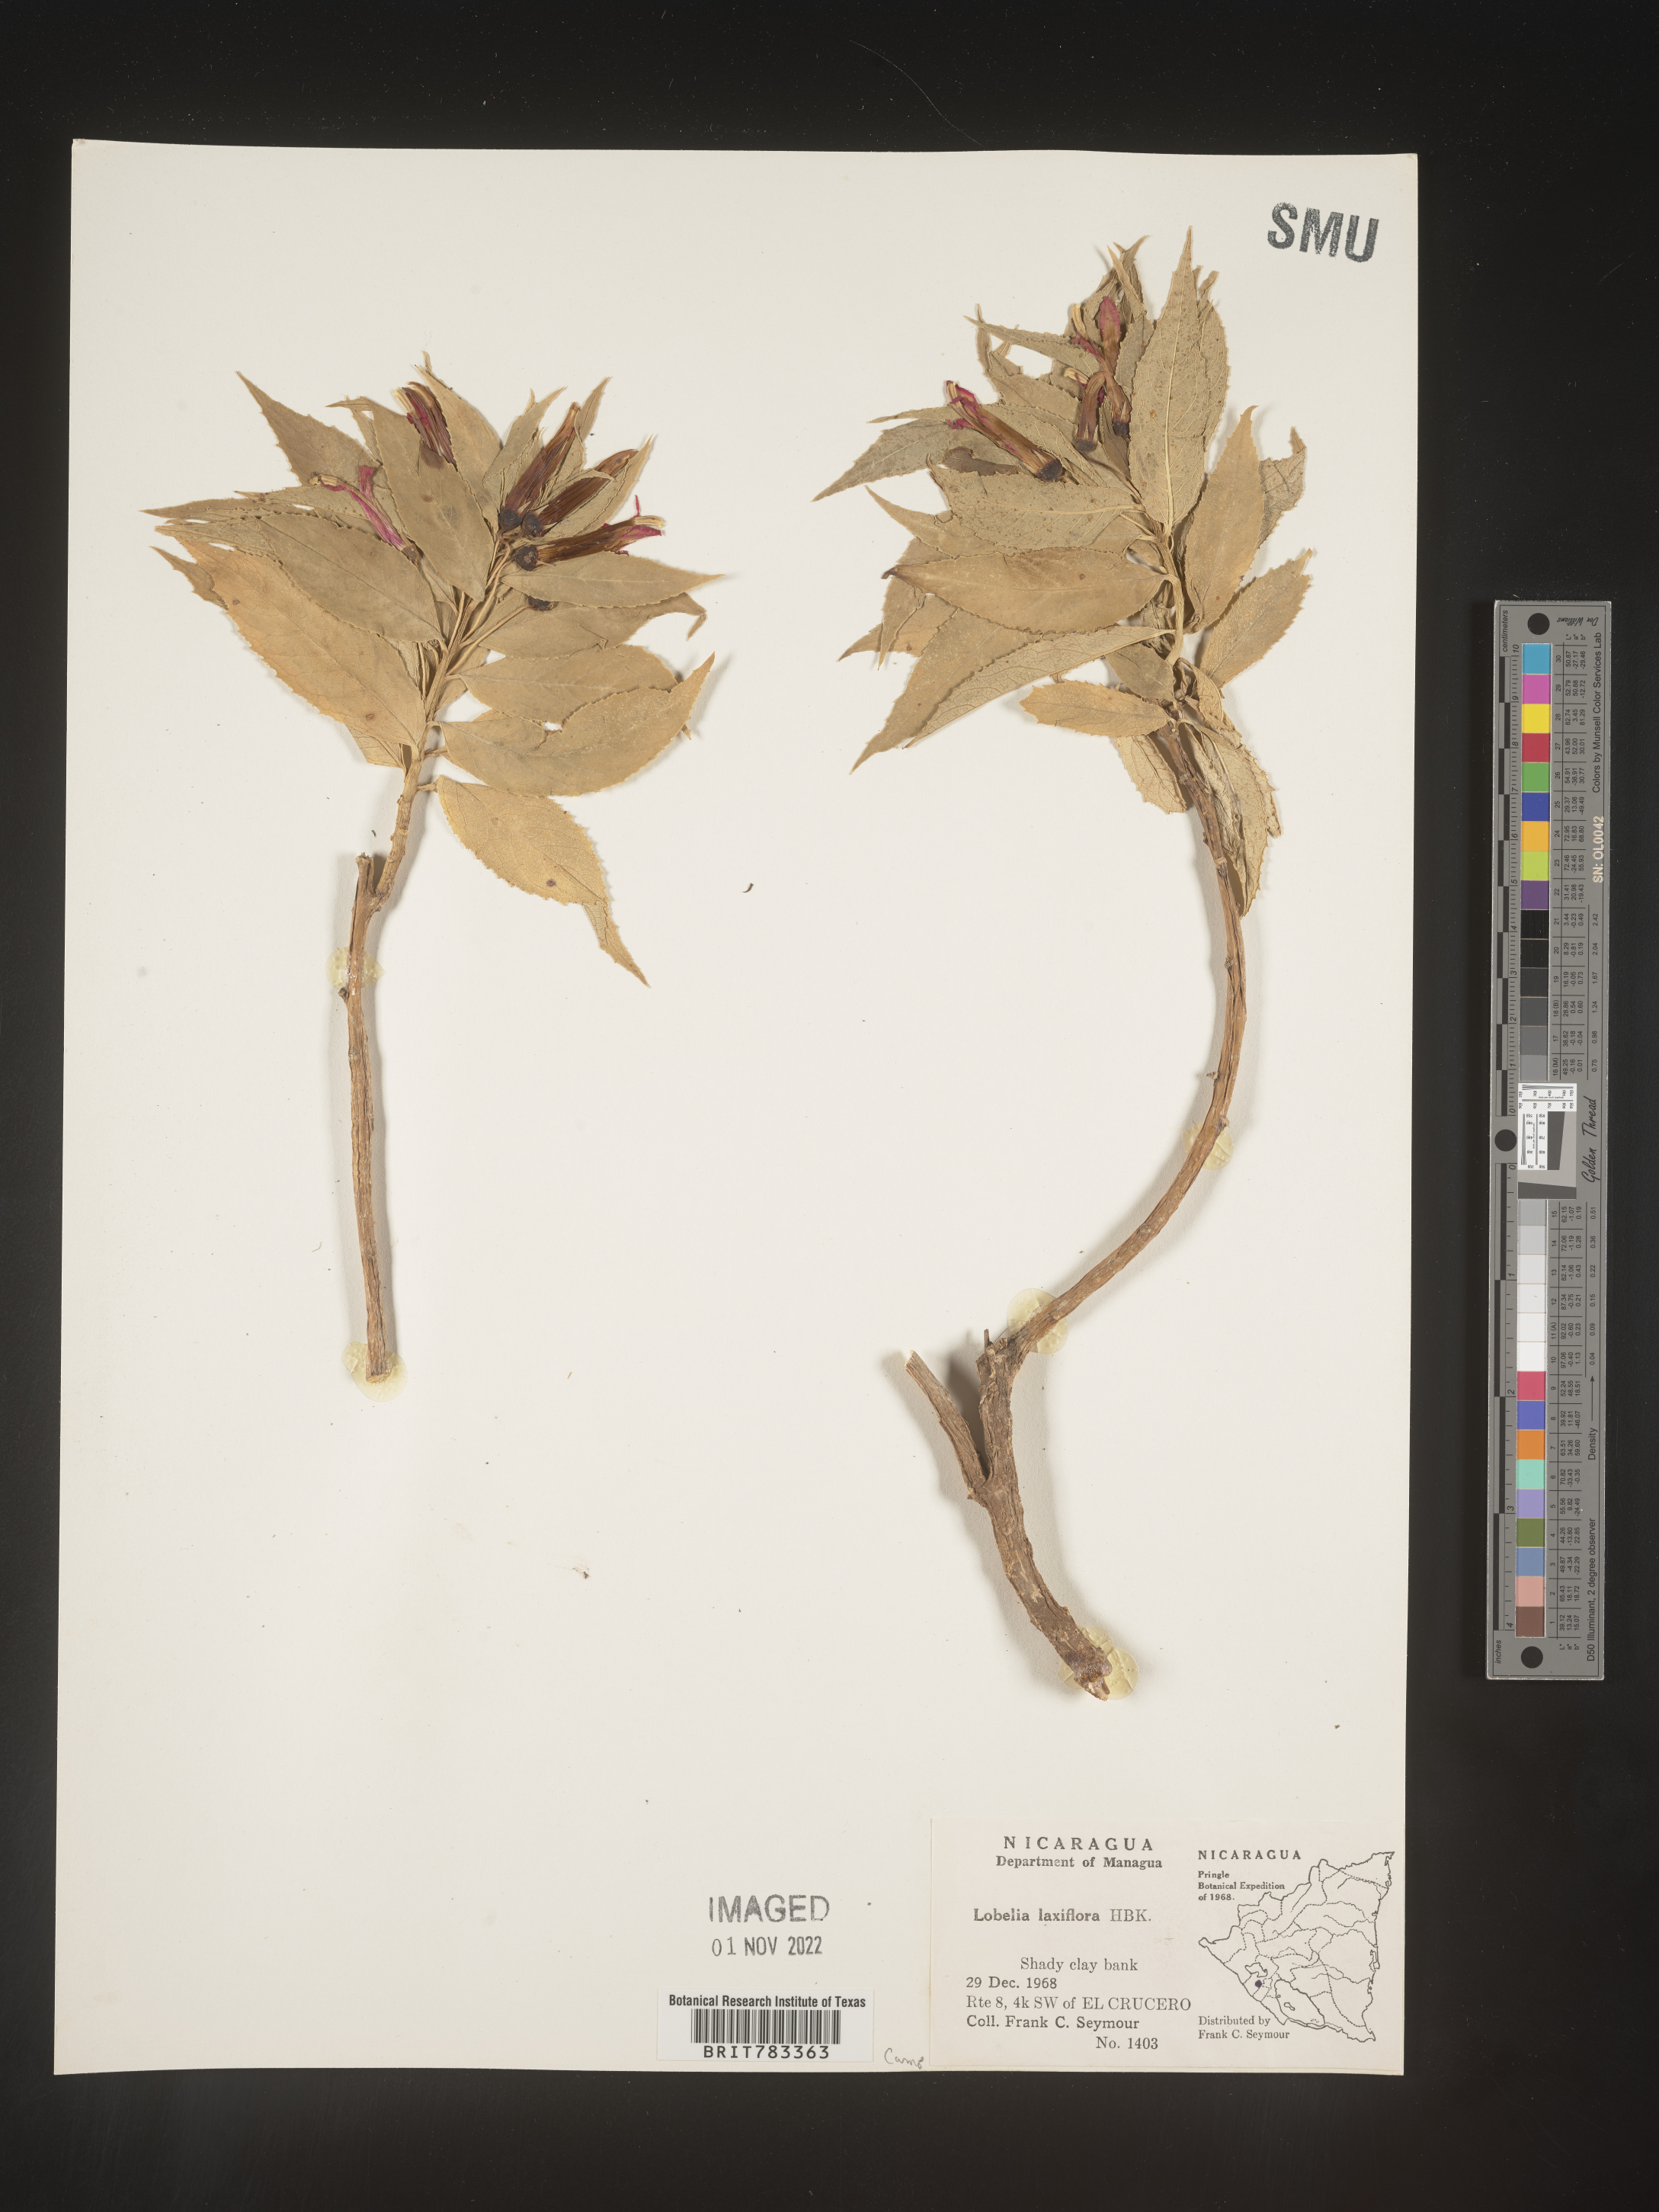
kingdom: Plantae
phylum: Tracheophyta
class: Magnoliopsida
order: Asterales
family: Campanulaceae
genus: Lobelia
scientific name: Lobelia
